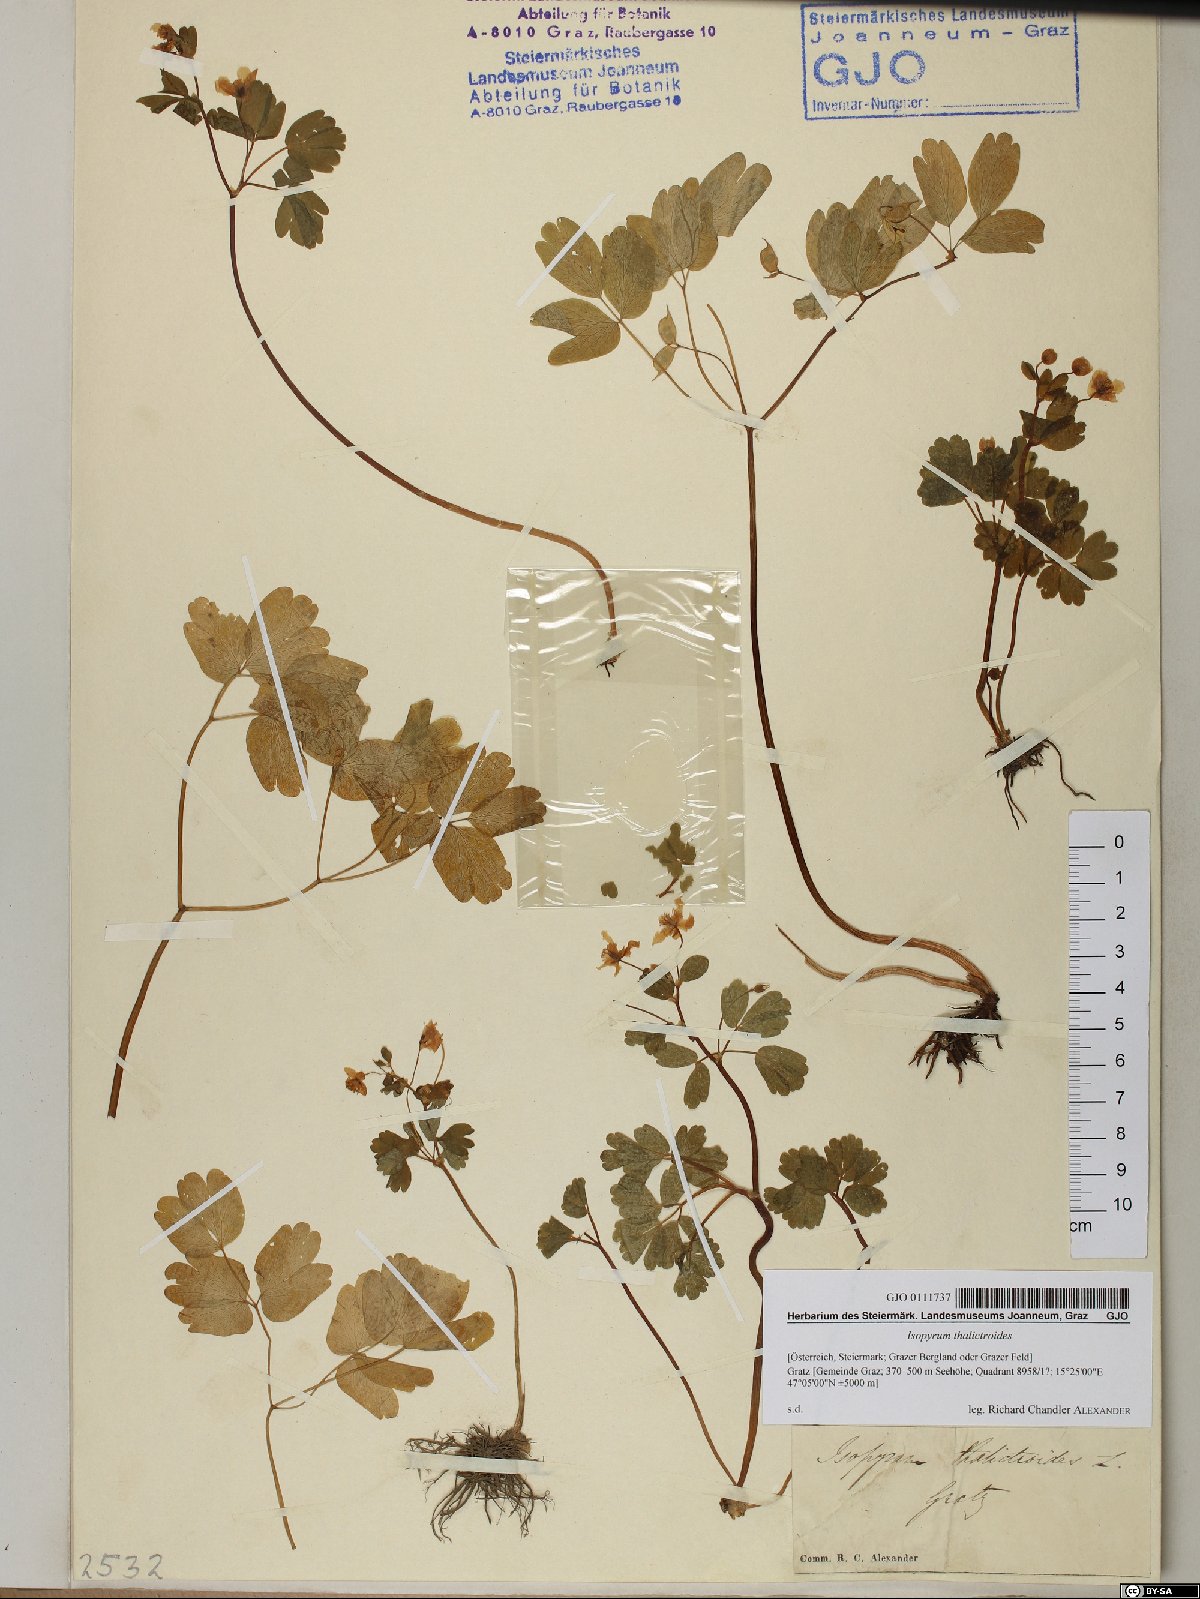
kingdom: Plantae
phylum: Tracheophyta
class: Magnoliopsida
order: Ranunculales
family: Ranunculaceae
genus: Isopyrum
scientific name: Isopyrum thalictroides
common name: Isopyrum
